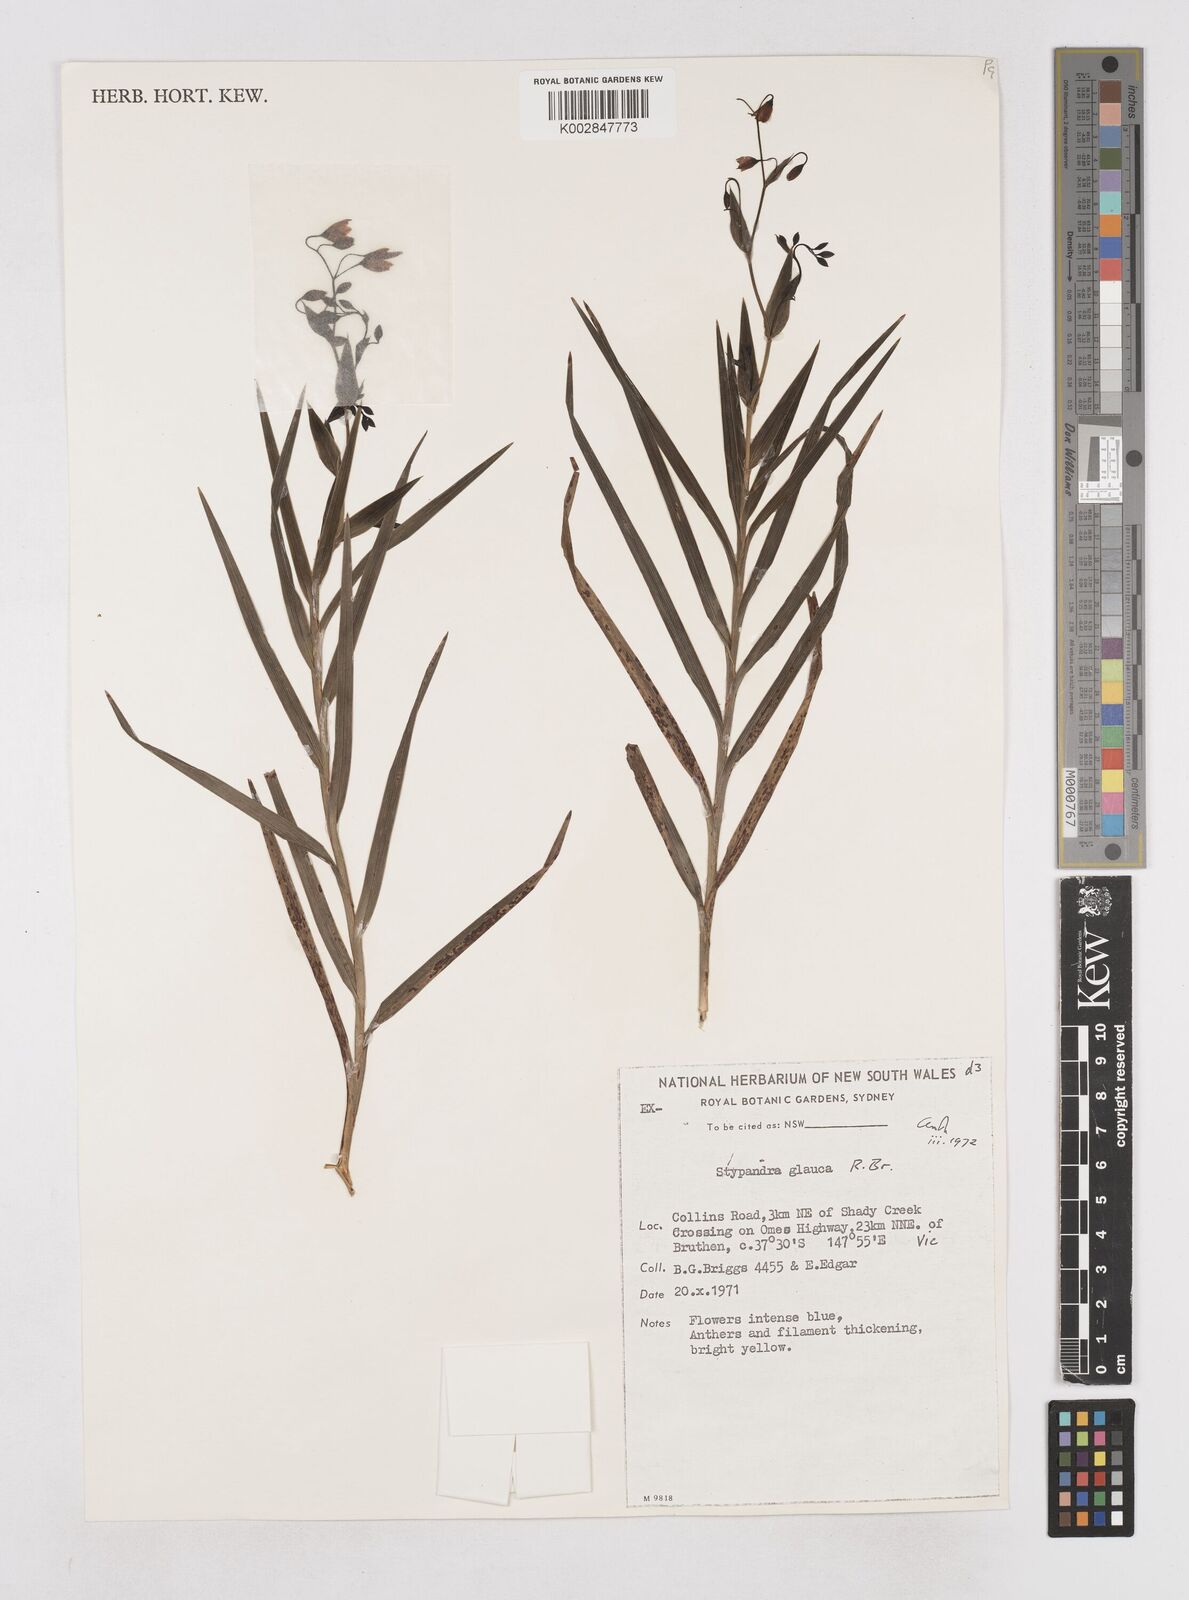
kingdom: Plantae
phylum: Tracheophyta
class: Liliopsida
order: Asparagales
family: Asphodelaceae
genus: Stypandra
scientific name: Stypandra glauca
